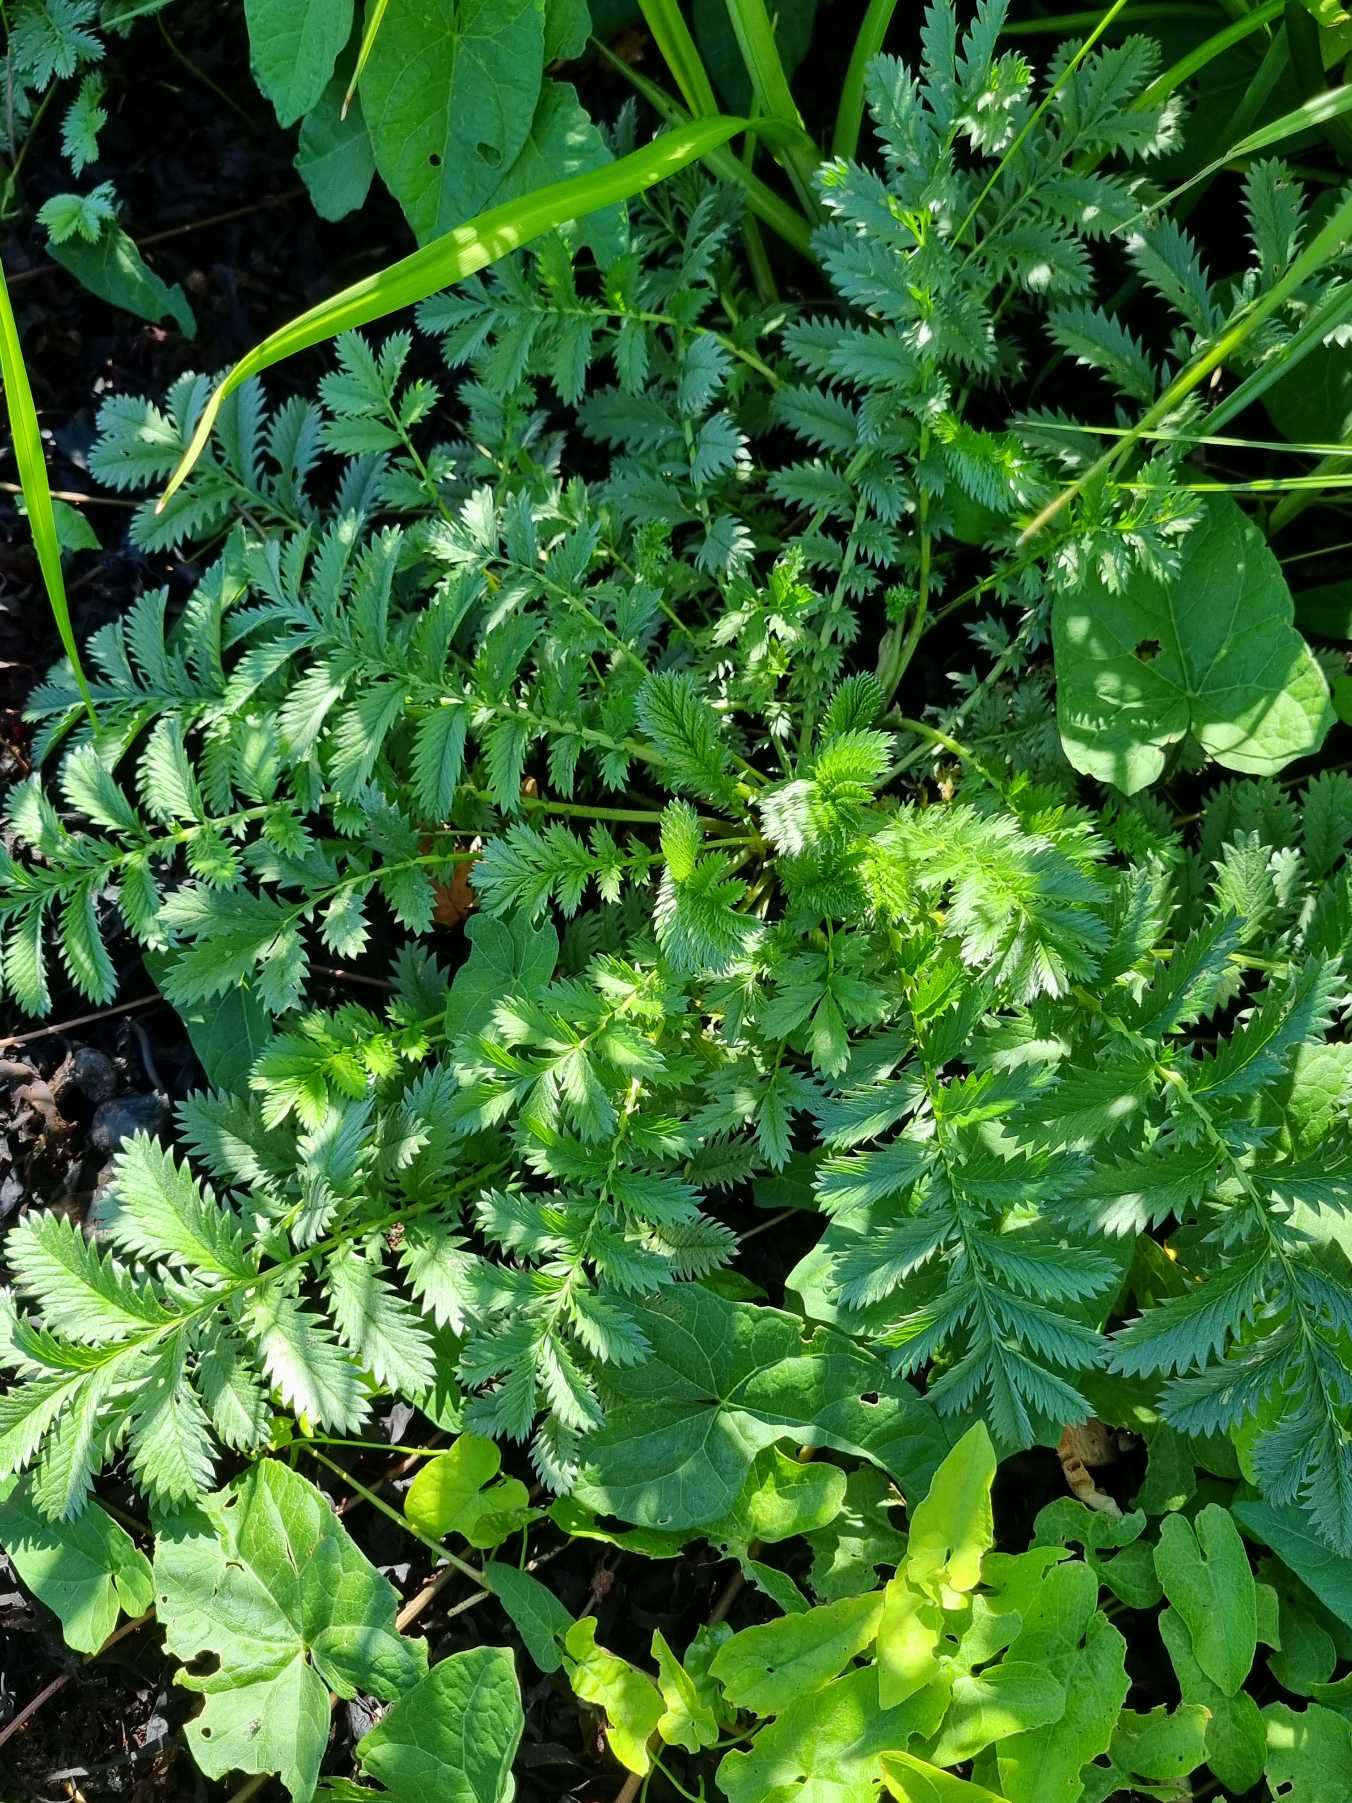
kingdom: Plantae
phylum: Tracheophyta
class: Magnoliopsida
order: Rosales
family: Rosaceae
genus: Argentina
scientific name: Argentina anserina
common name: Gåsepotentil
